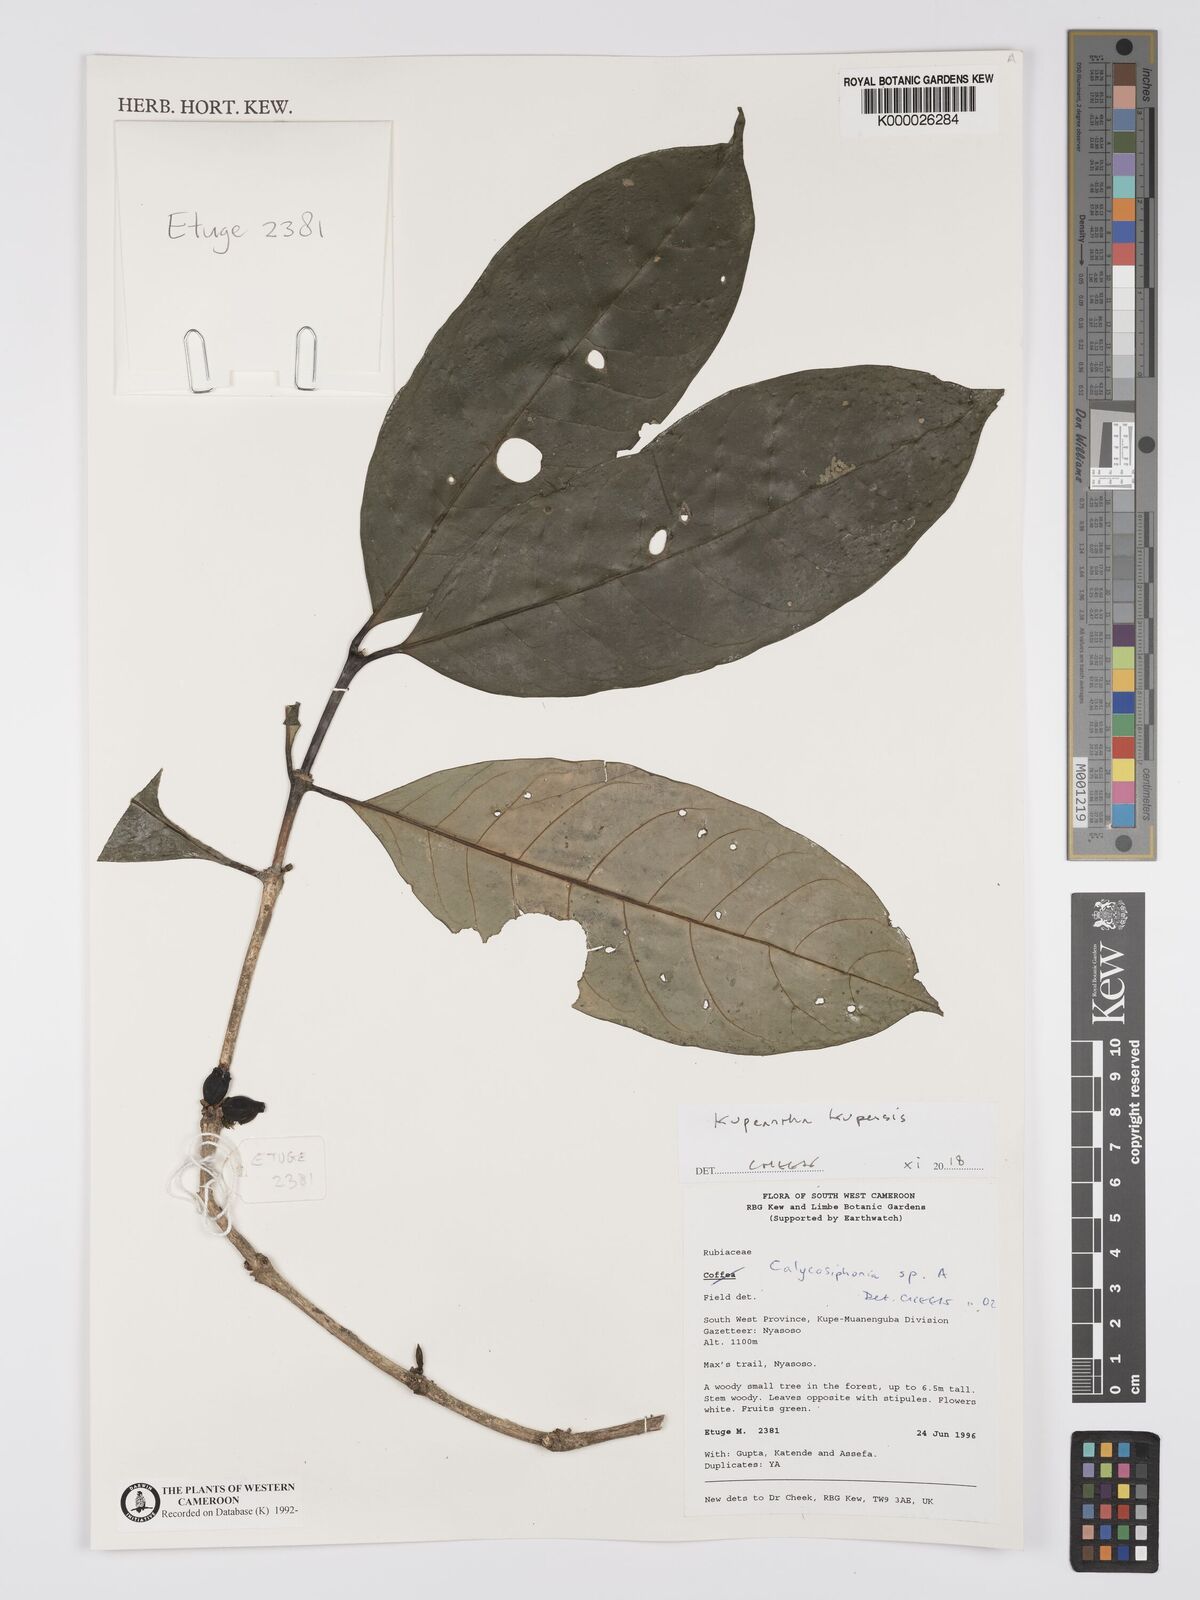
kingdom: Plantae
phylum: Tracheophyta
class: Magnoliopsida
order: Gentianales
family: Rubiaceae
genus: Argocoffeopsis
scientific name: Argocoffeopsis
